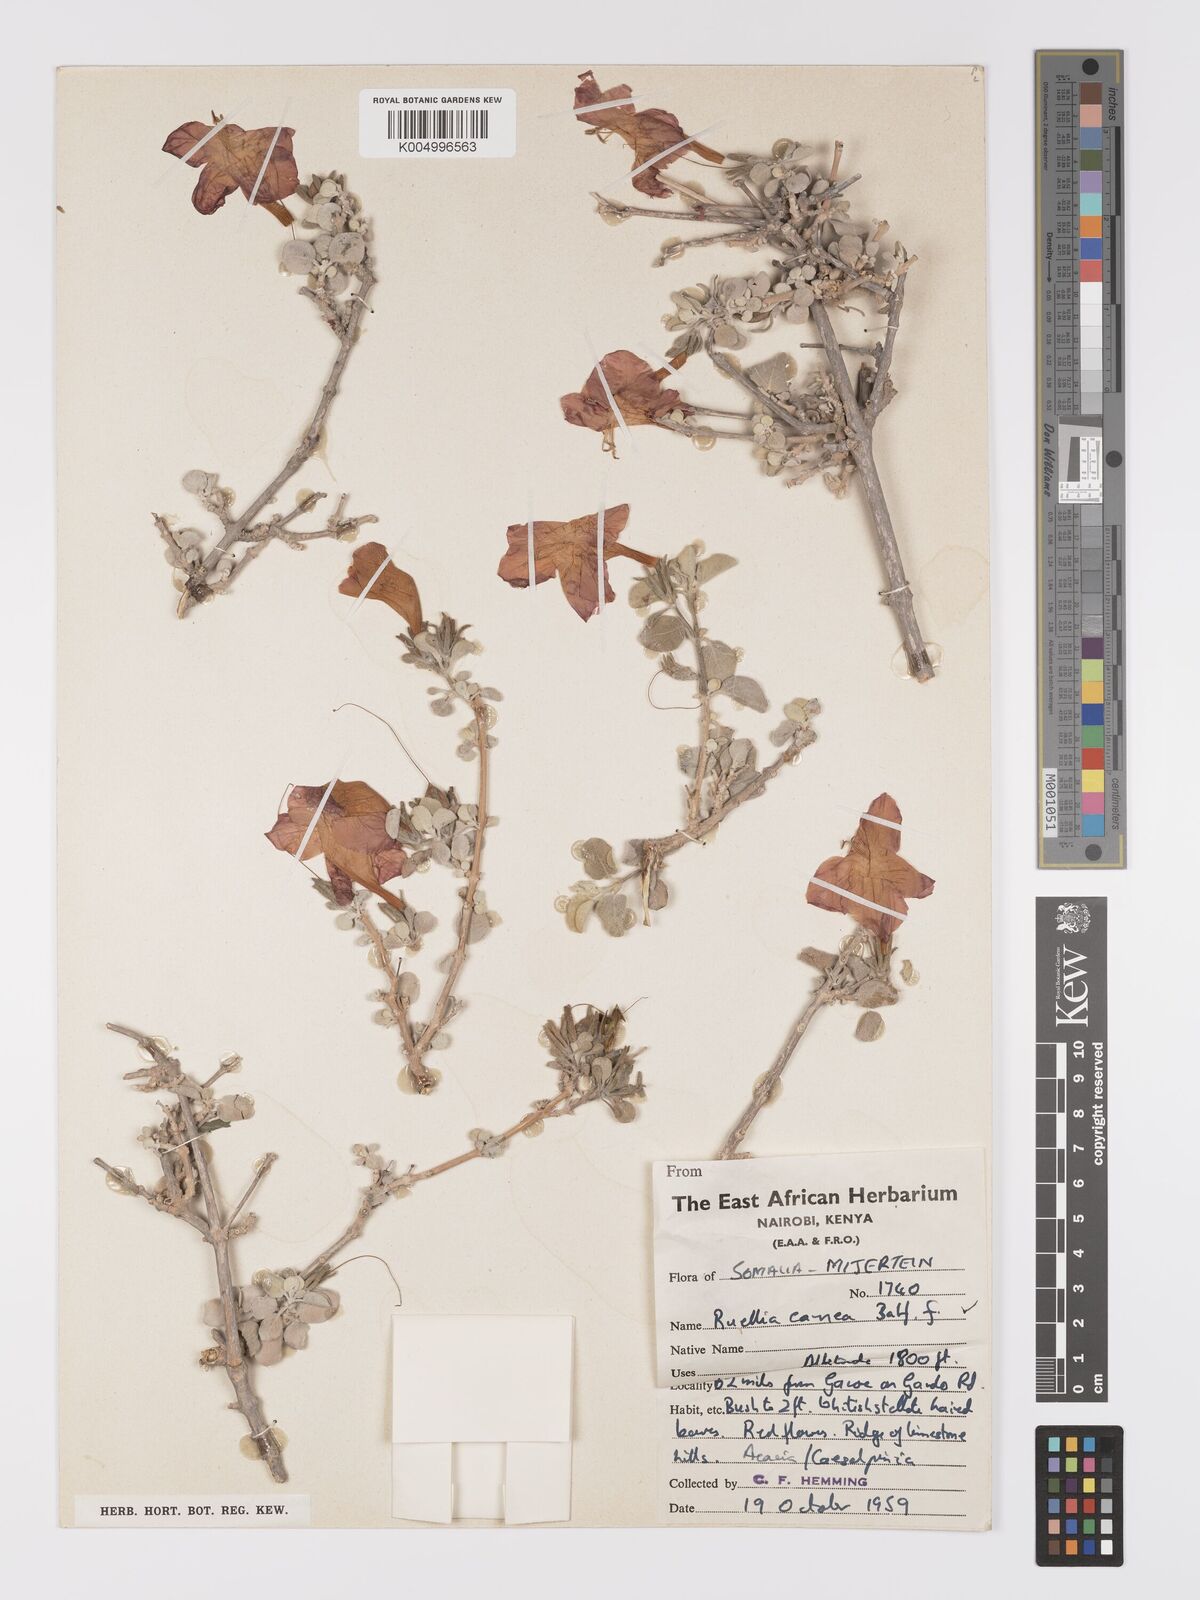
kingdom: Plantae
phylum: Tracheophyta
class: Magnoliopsida
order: Lamiales
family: Acanthaceae
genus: Ruellia
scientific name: Ruellia carnea
